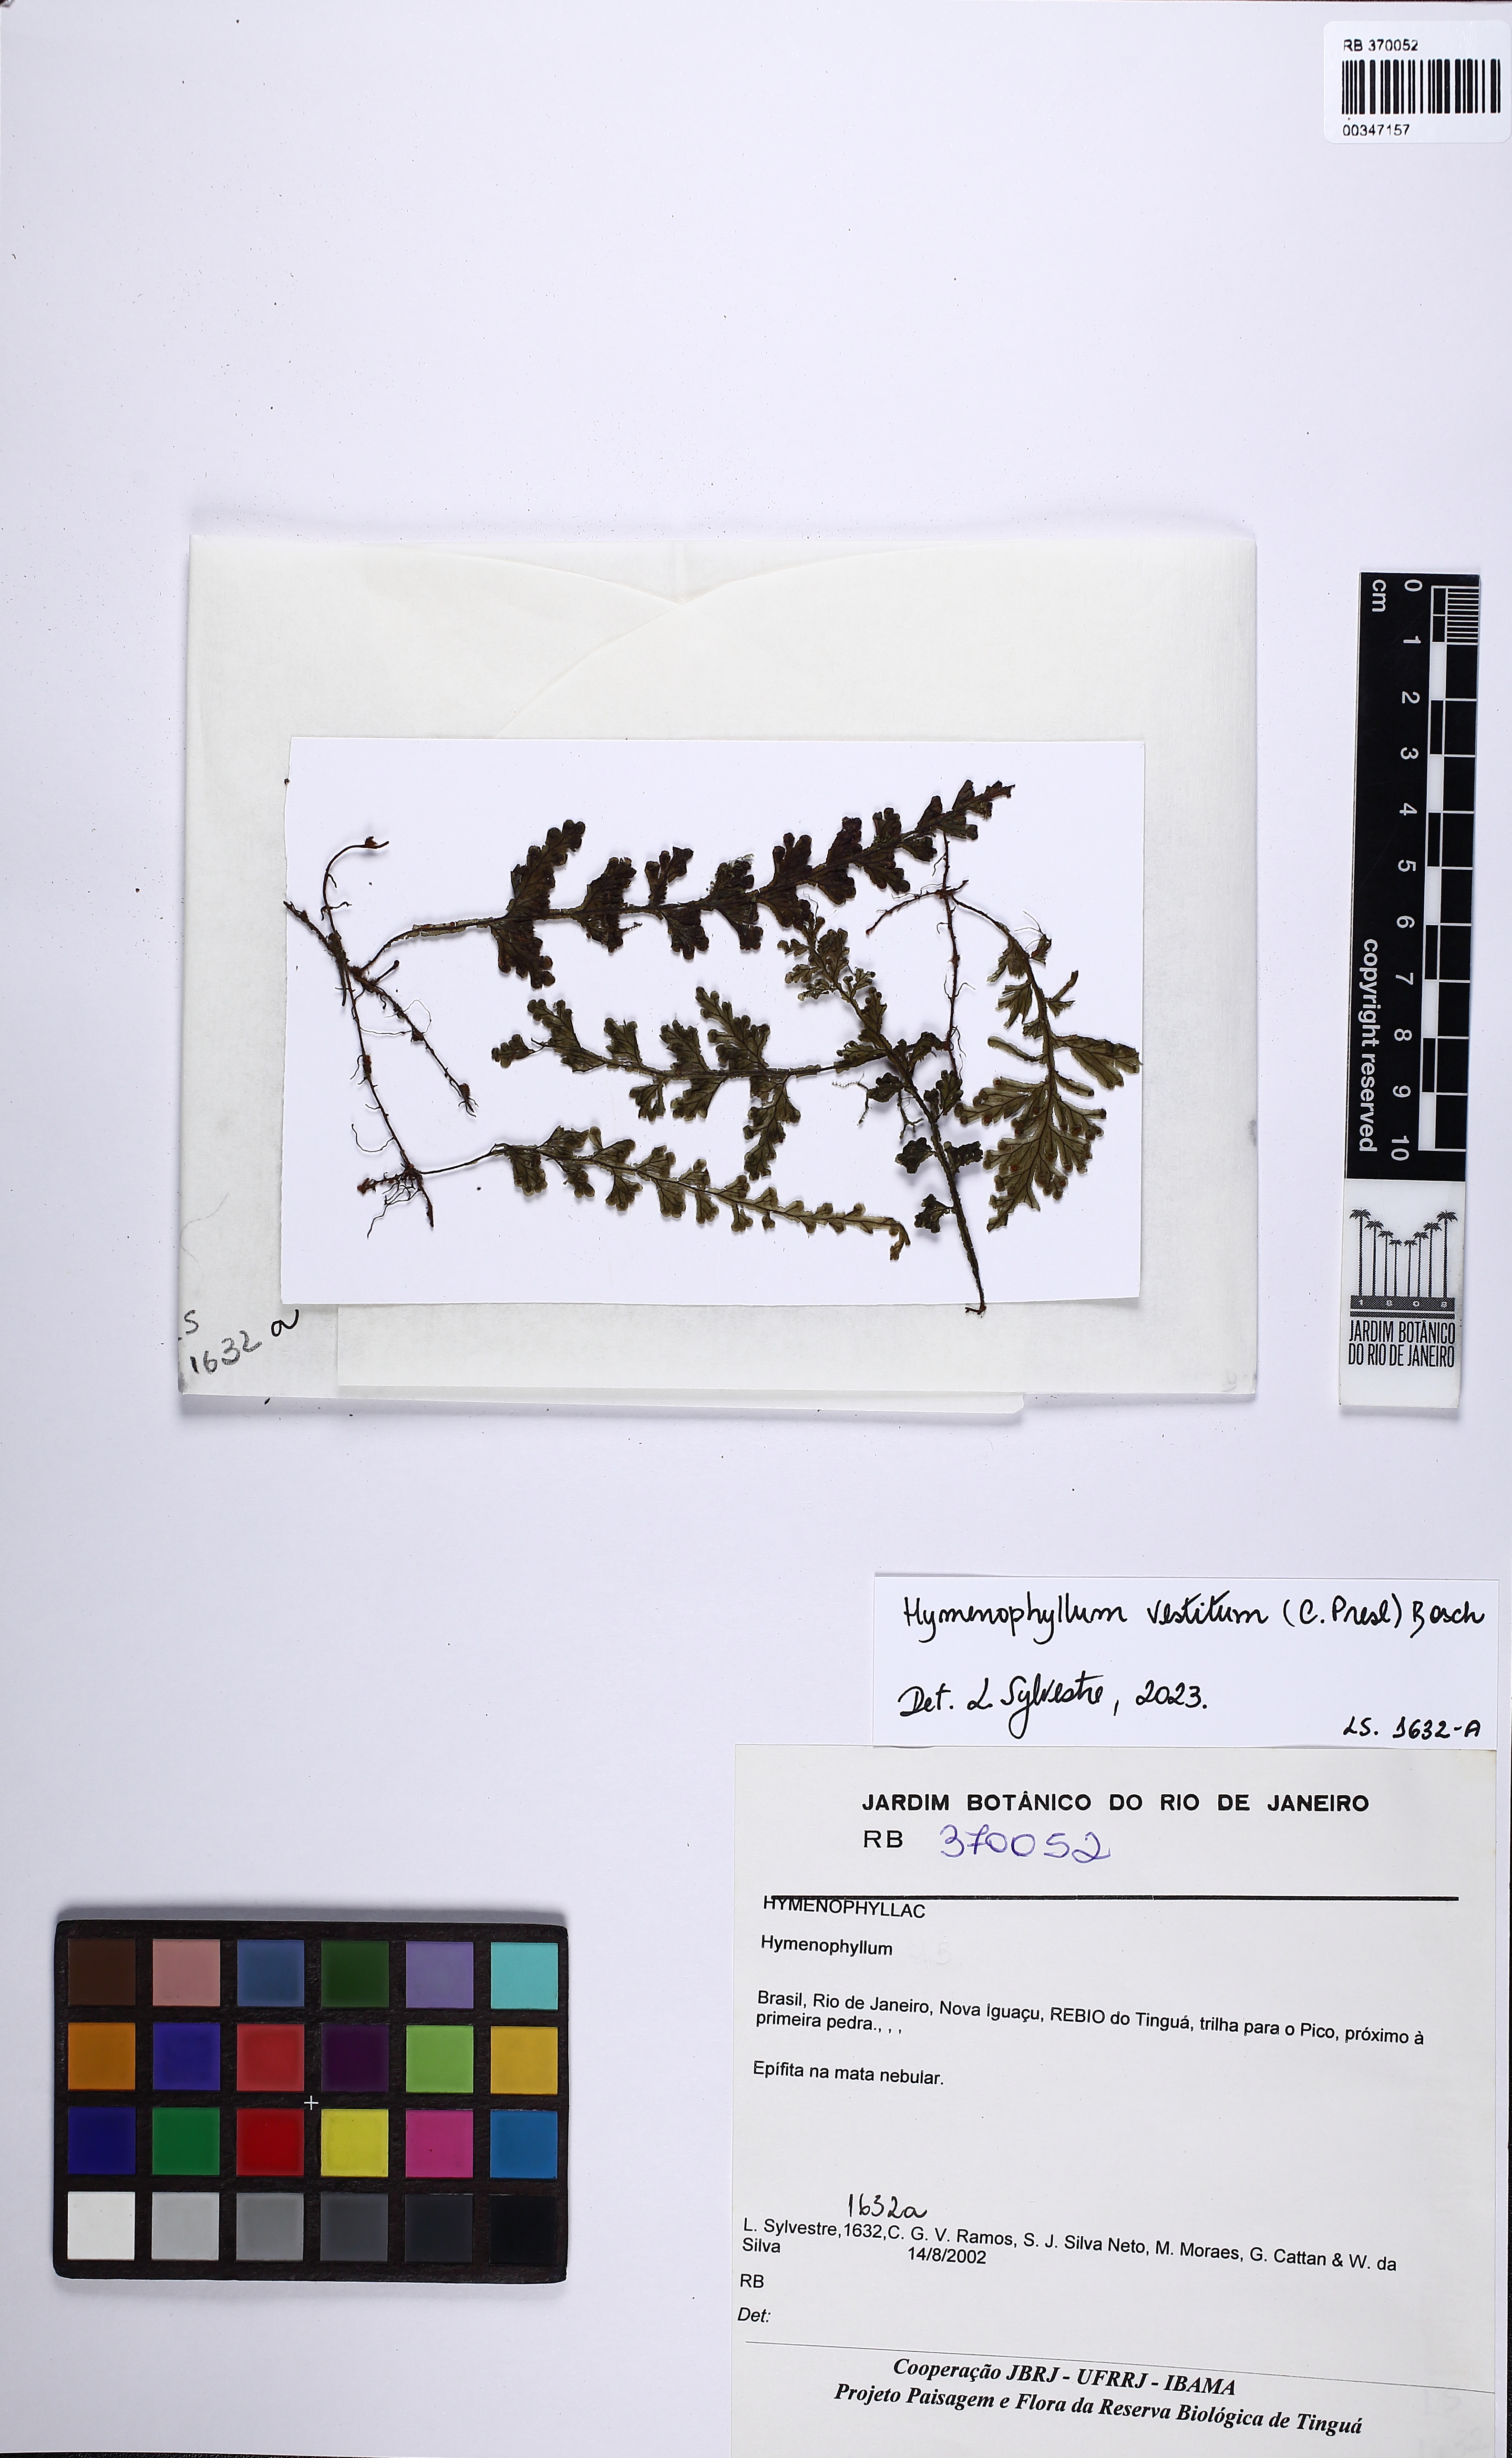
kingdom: Plantae
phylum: Tracheophyta
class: Polypodiopsida
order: Hymenophyllales
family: Hymenophyllaceae
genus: Hymenophyllum
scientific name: Hymenophyllum vestitum
